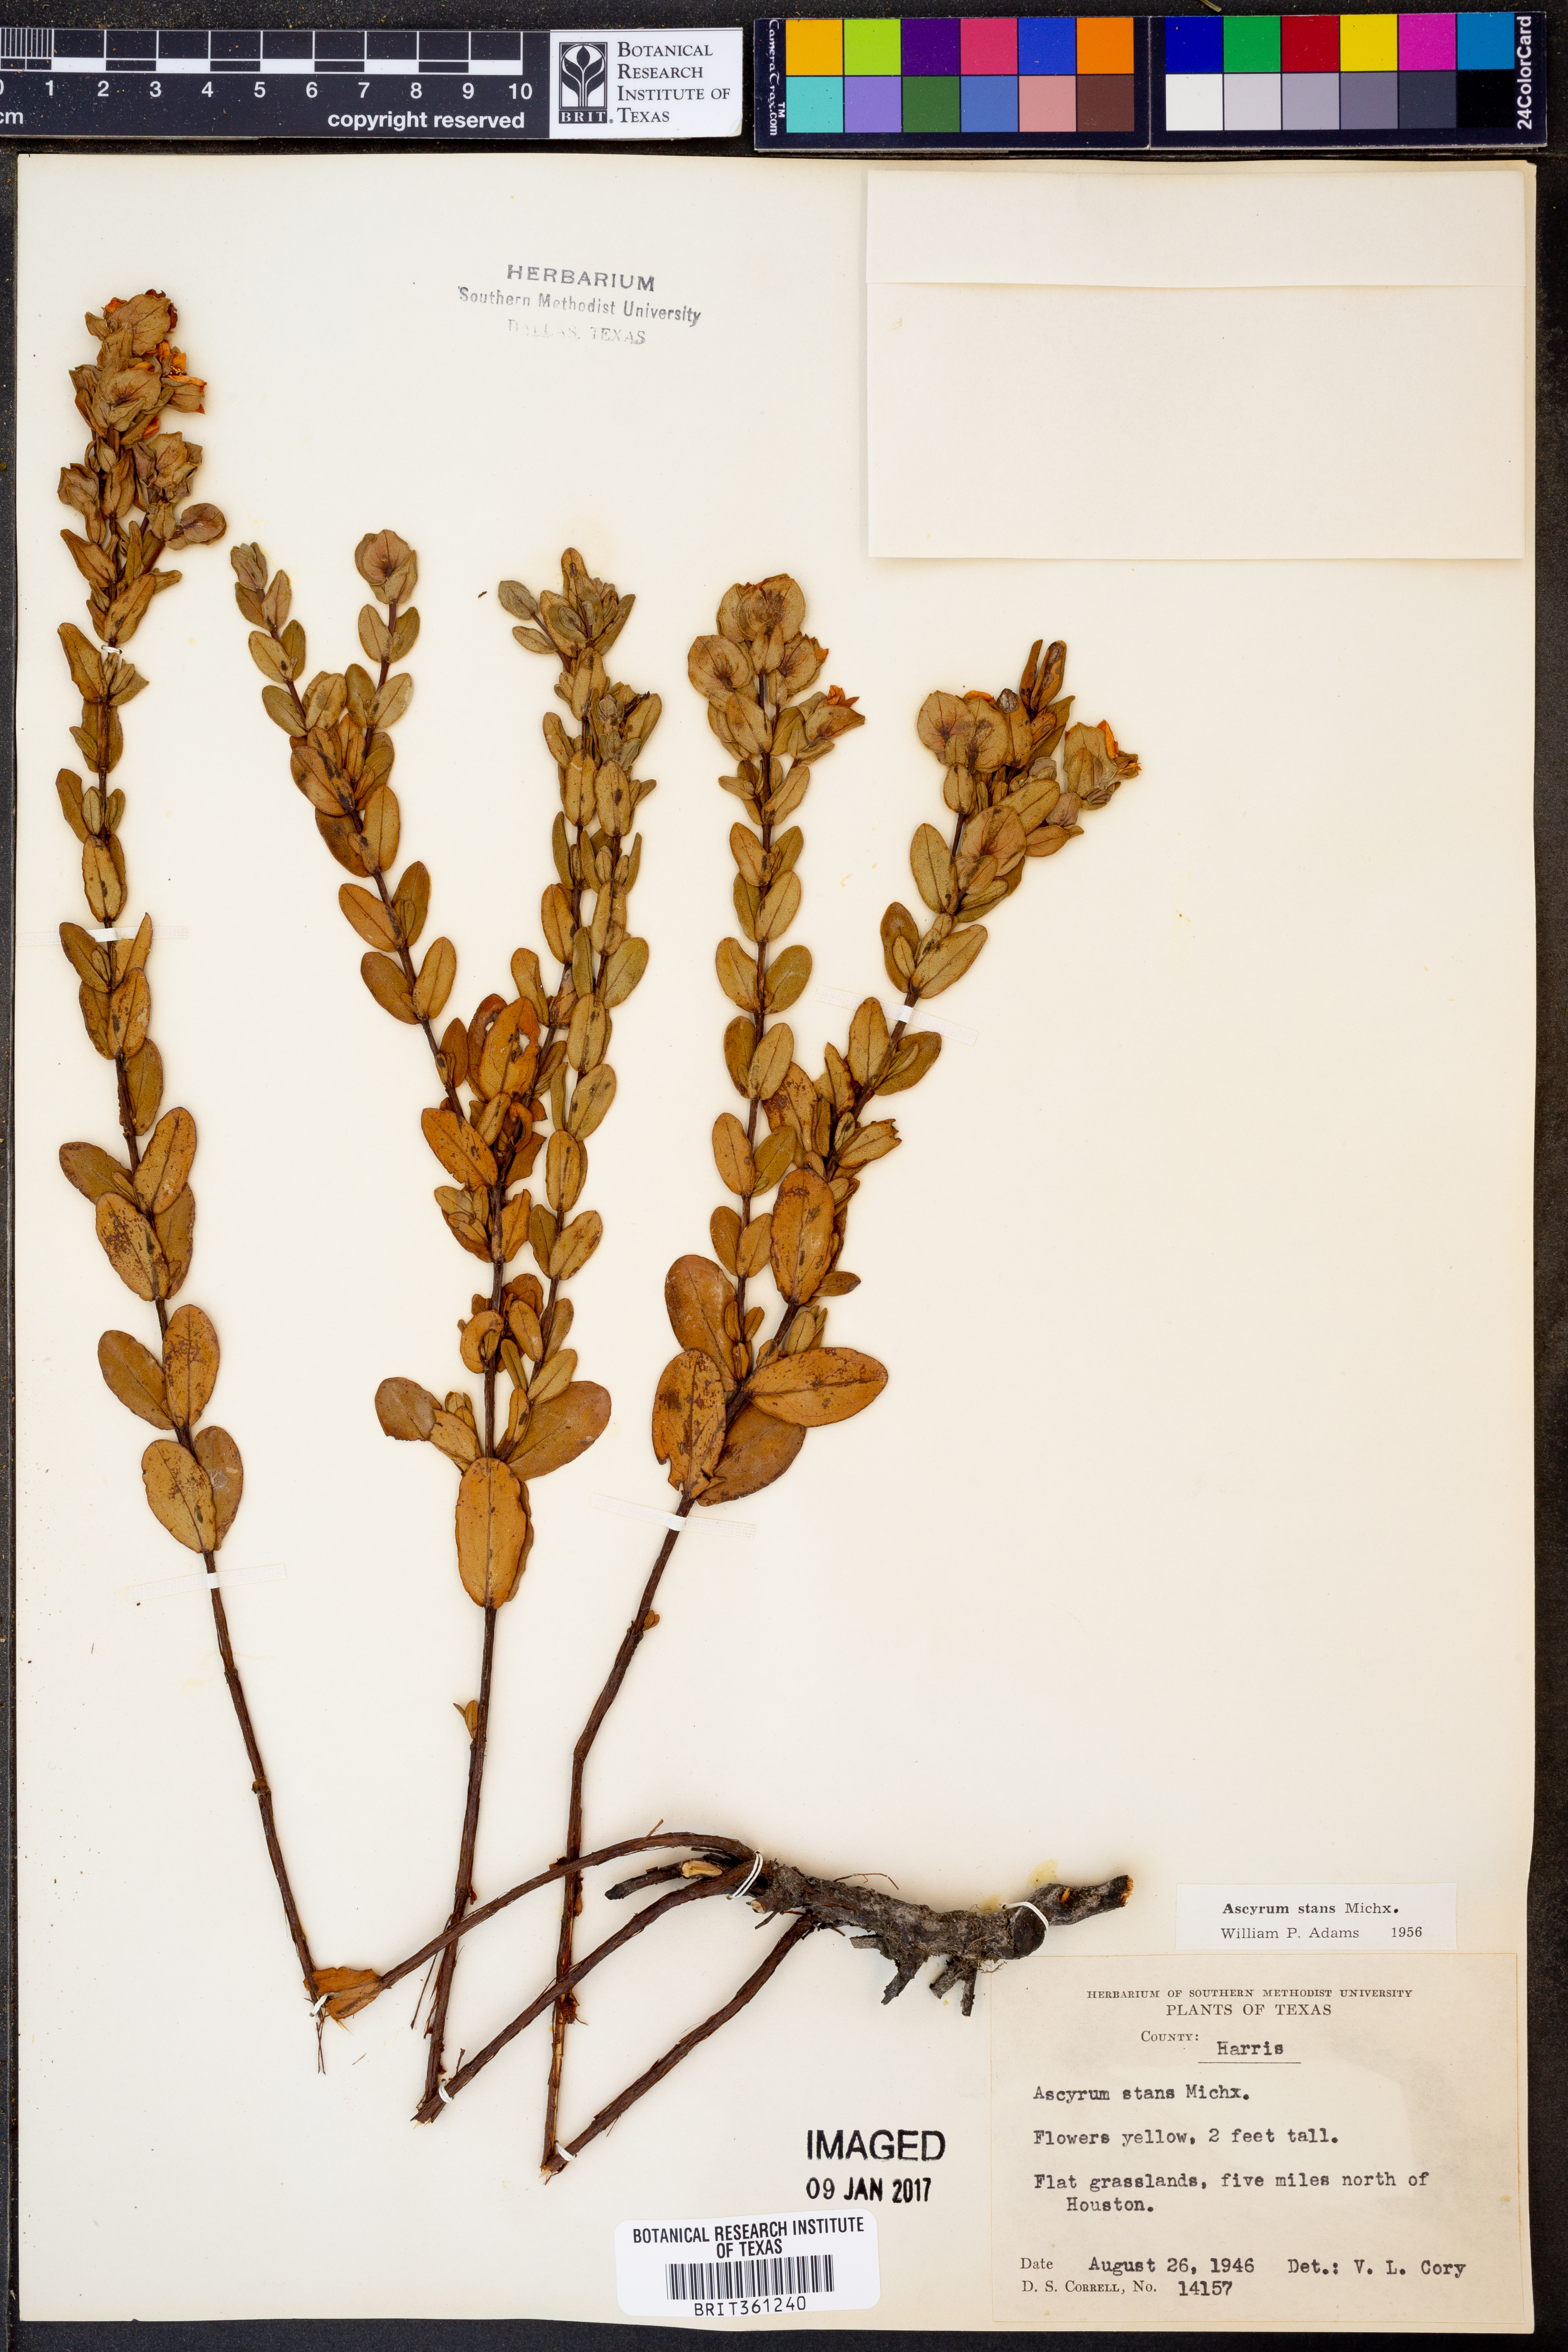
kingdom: Plantae
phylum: Tracheophyta
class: Magnoliopsida
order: Malpighiales
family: Hypericaceae
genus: Hypericum
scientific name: Hypericum crux-andreae
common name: St.-peter's-wort
